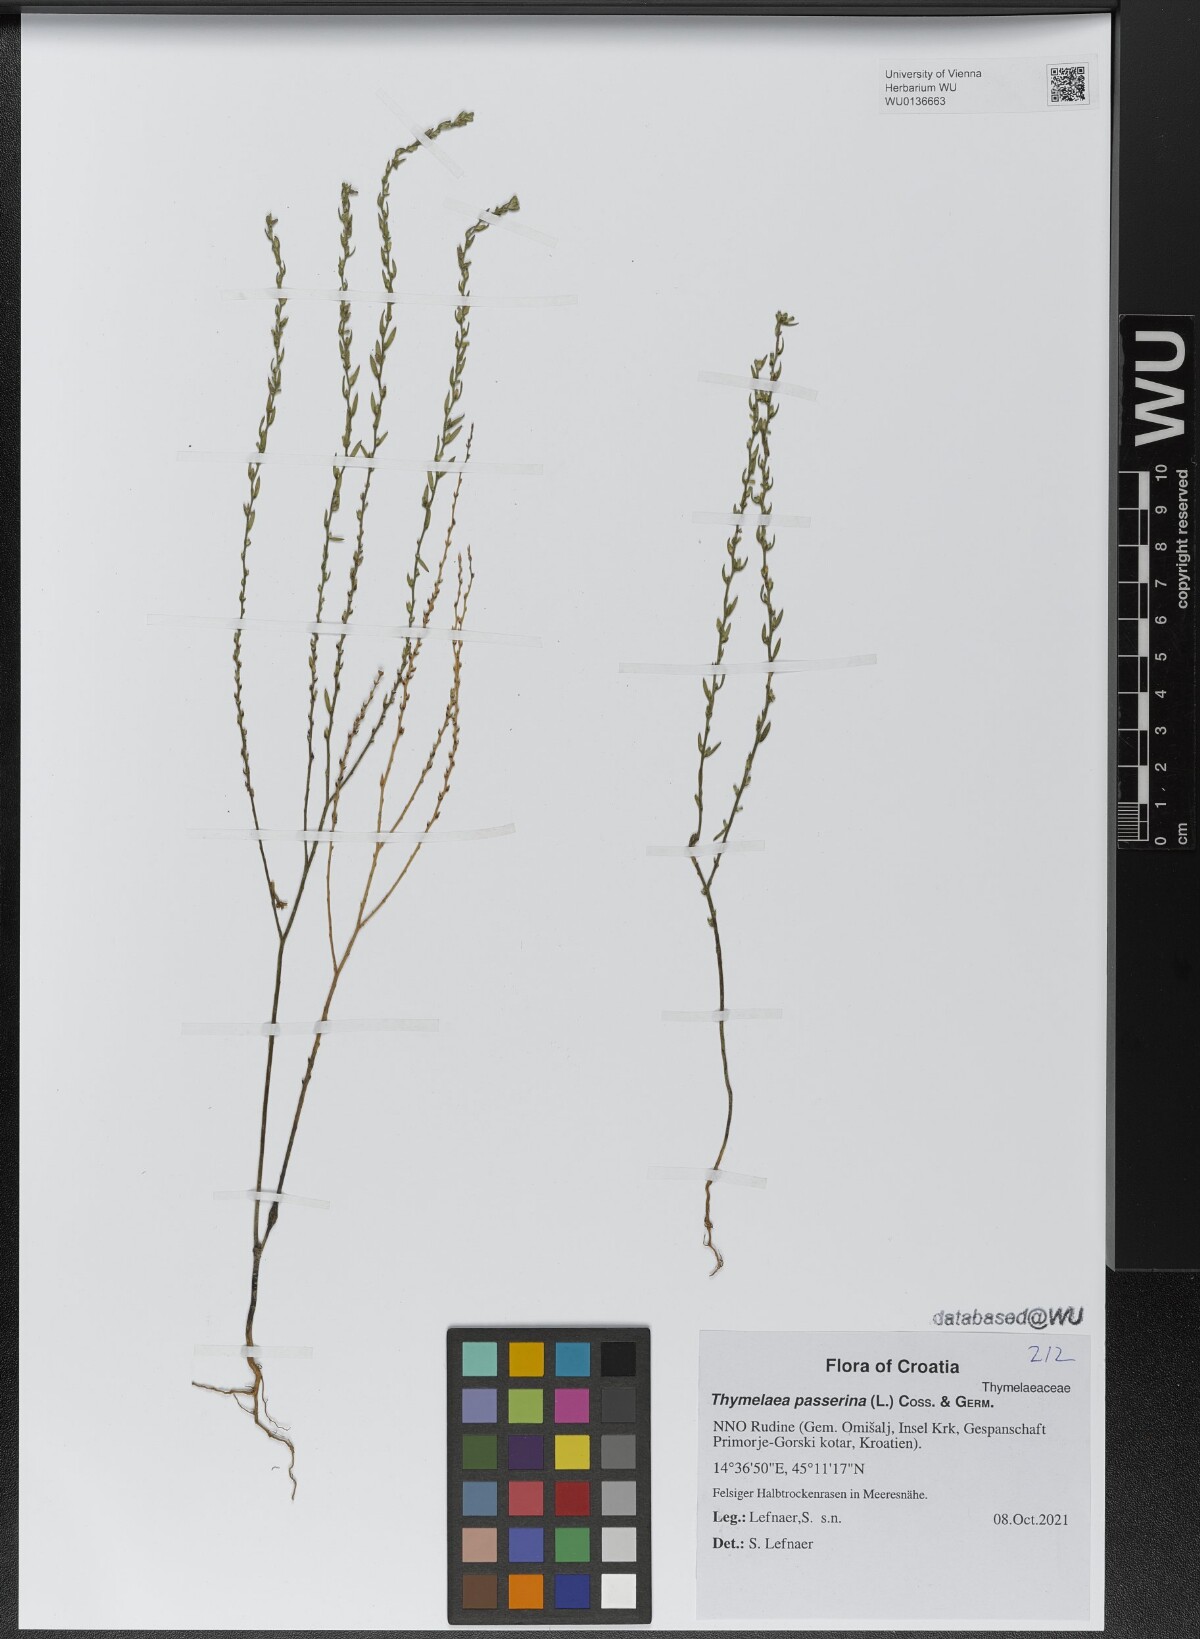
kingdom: Plantae
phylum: Tracheophyta
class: Magnoliopsida
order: Malvales
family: Thymelaeaceae
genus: Thymelaea
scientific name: Thymelaea passerina
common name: Annual thymelaea
